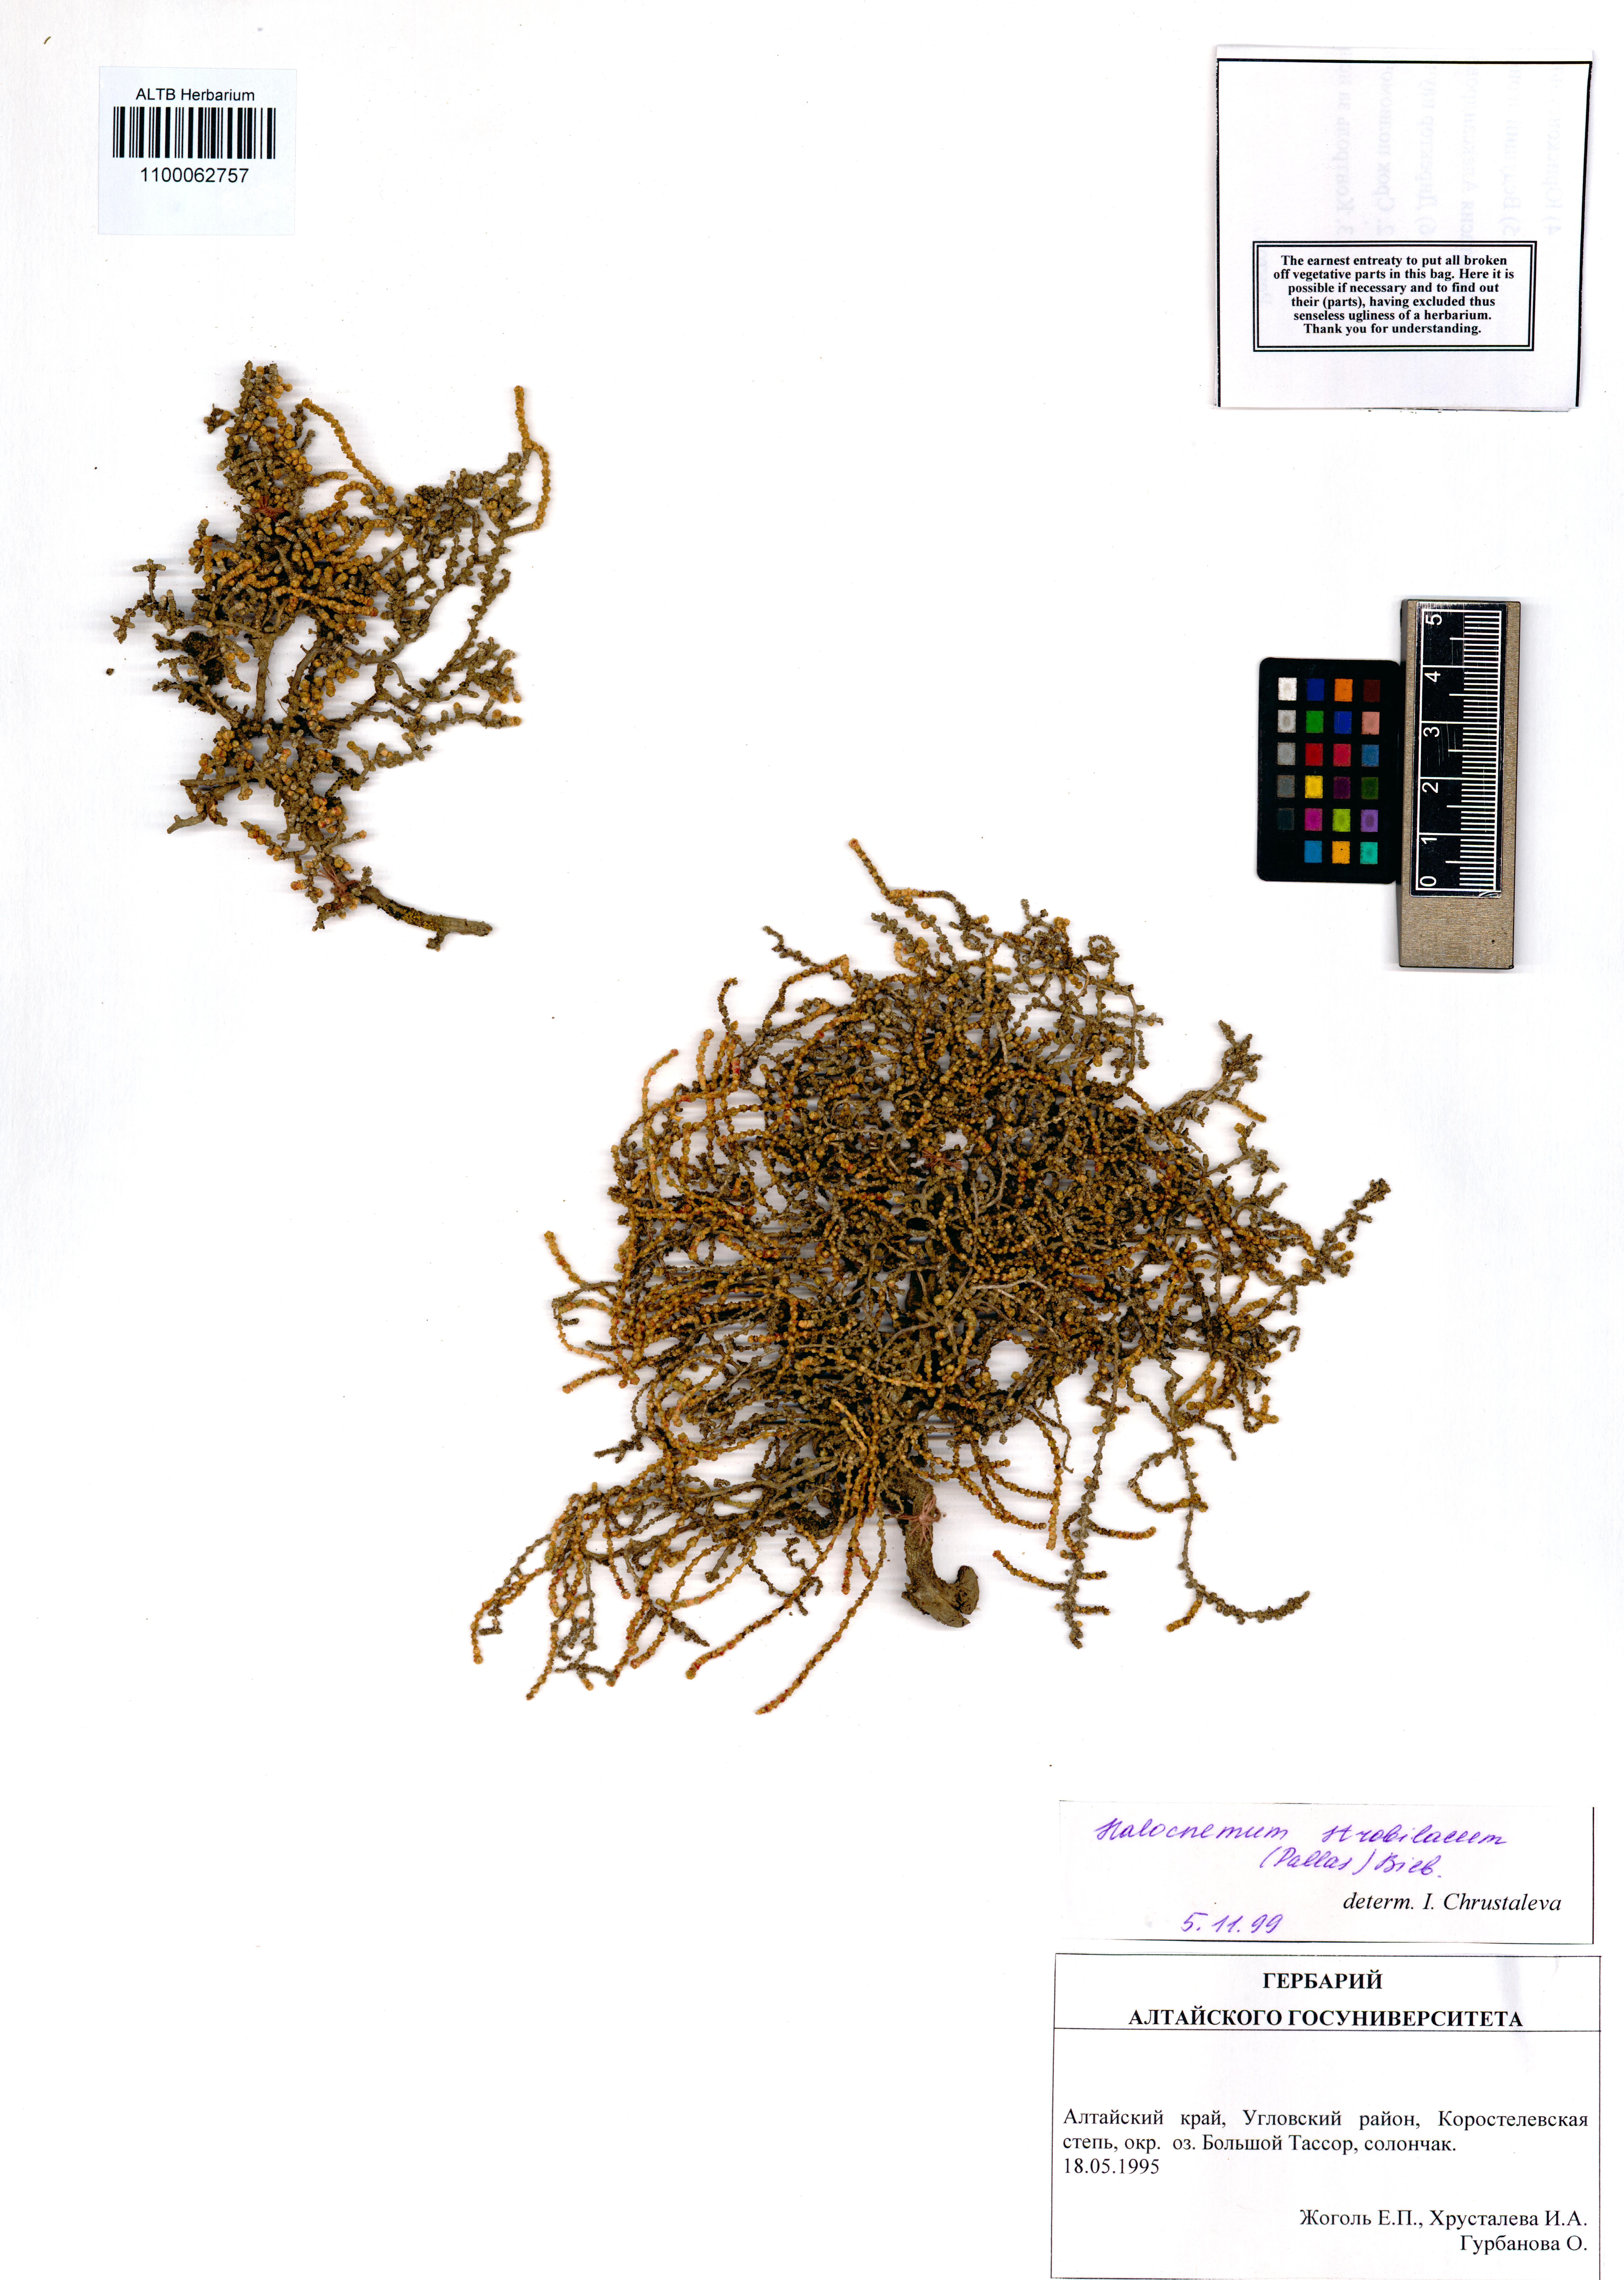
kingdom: Plantae
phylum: Tracheophyta
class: Magnoliopsida
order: Caryophyllales
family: Amaranthaceae
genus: Halocnemum
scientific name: Halocnemum strobilaceum
